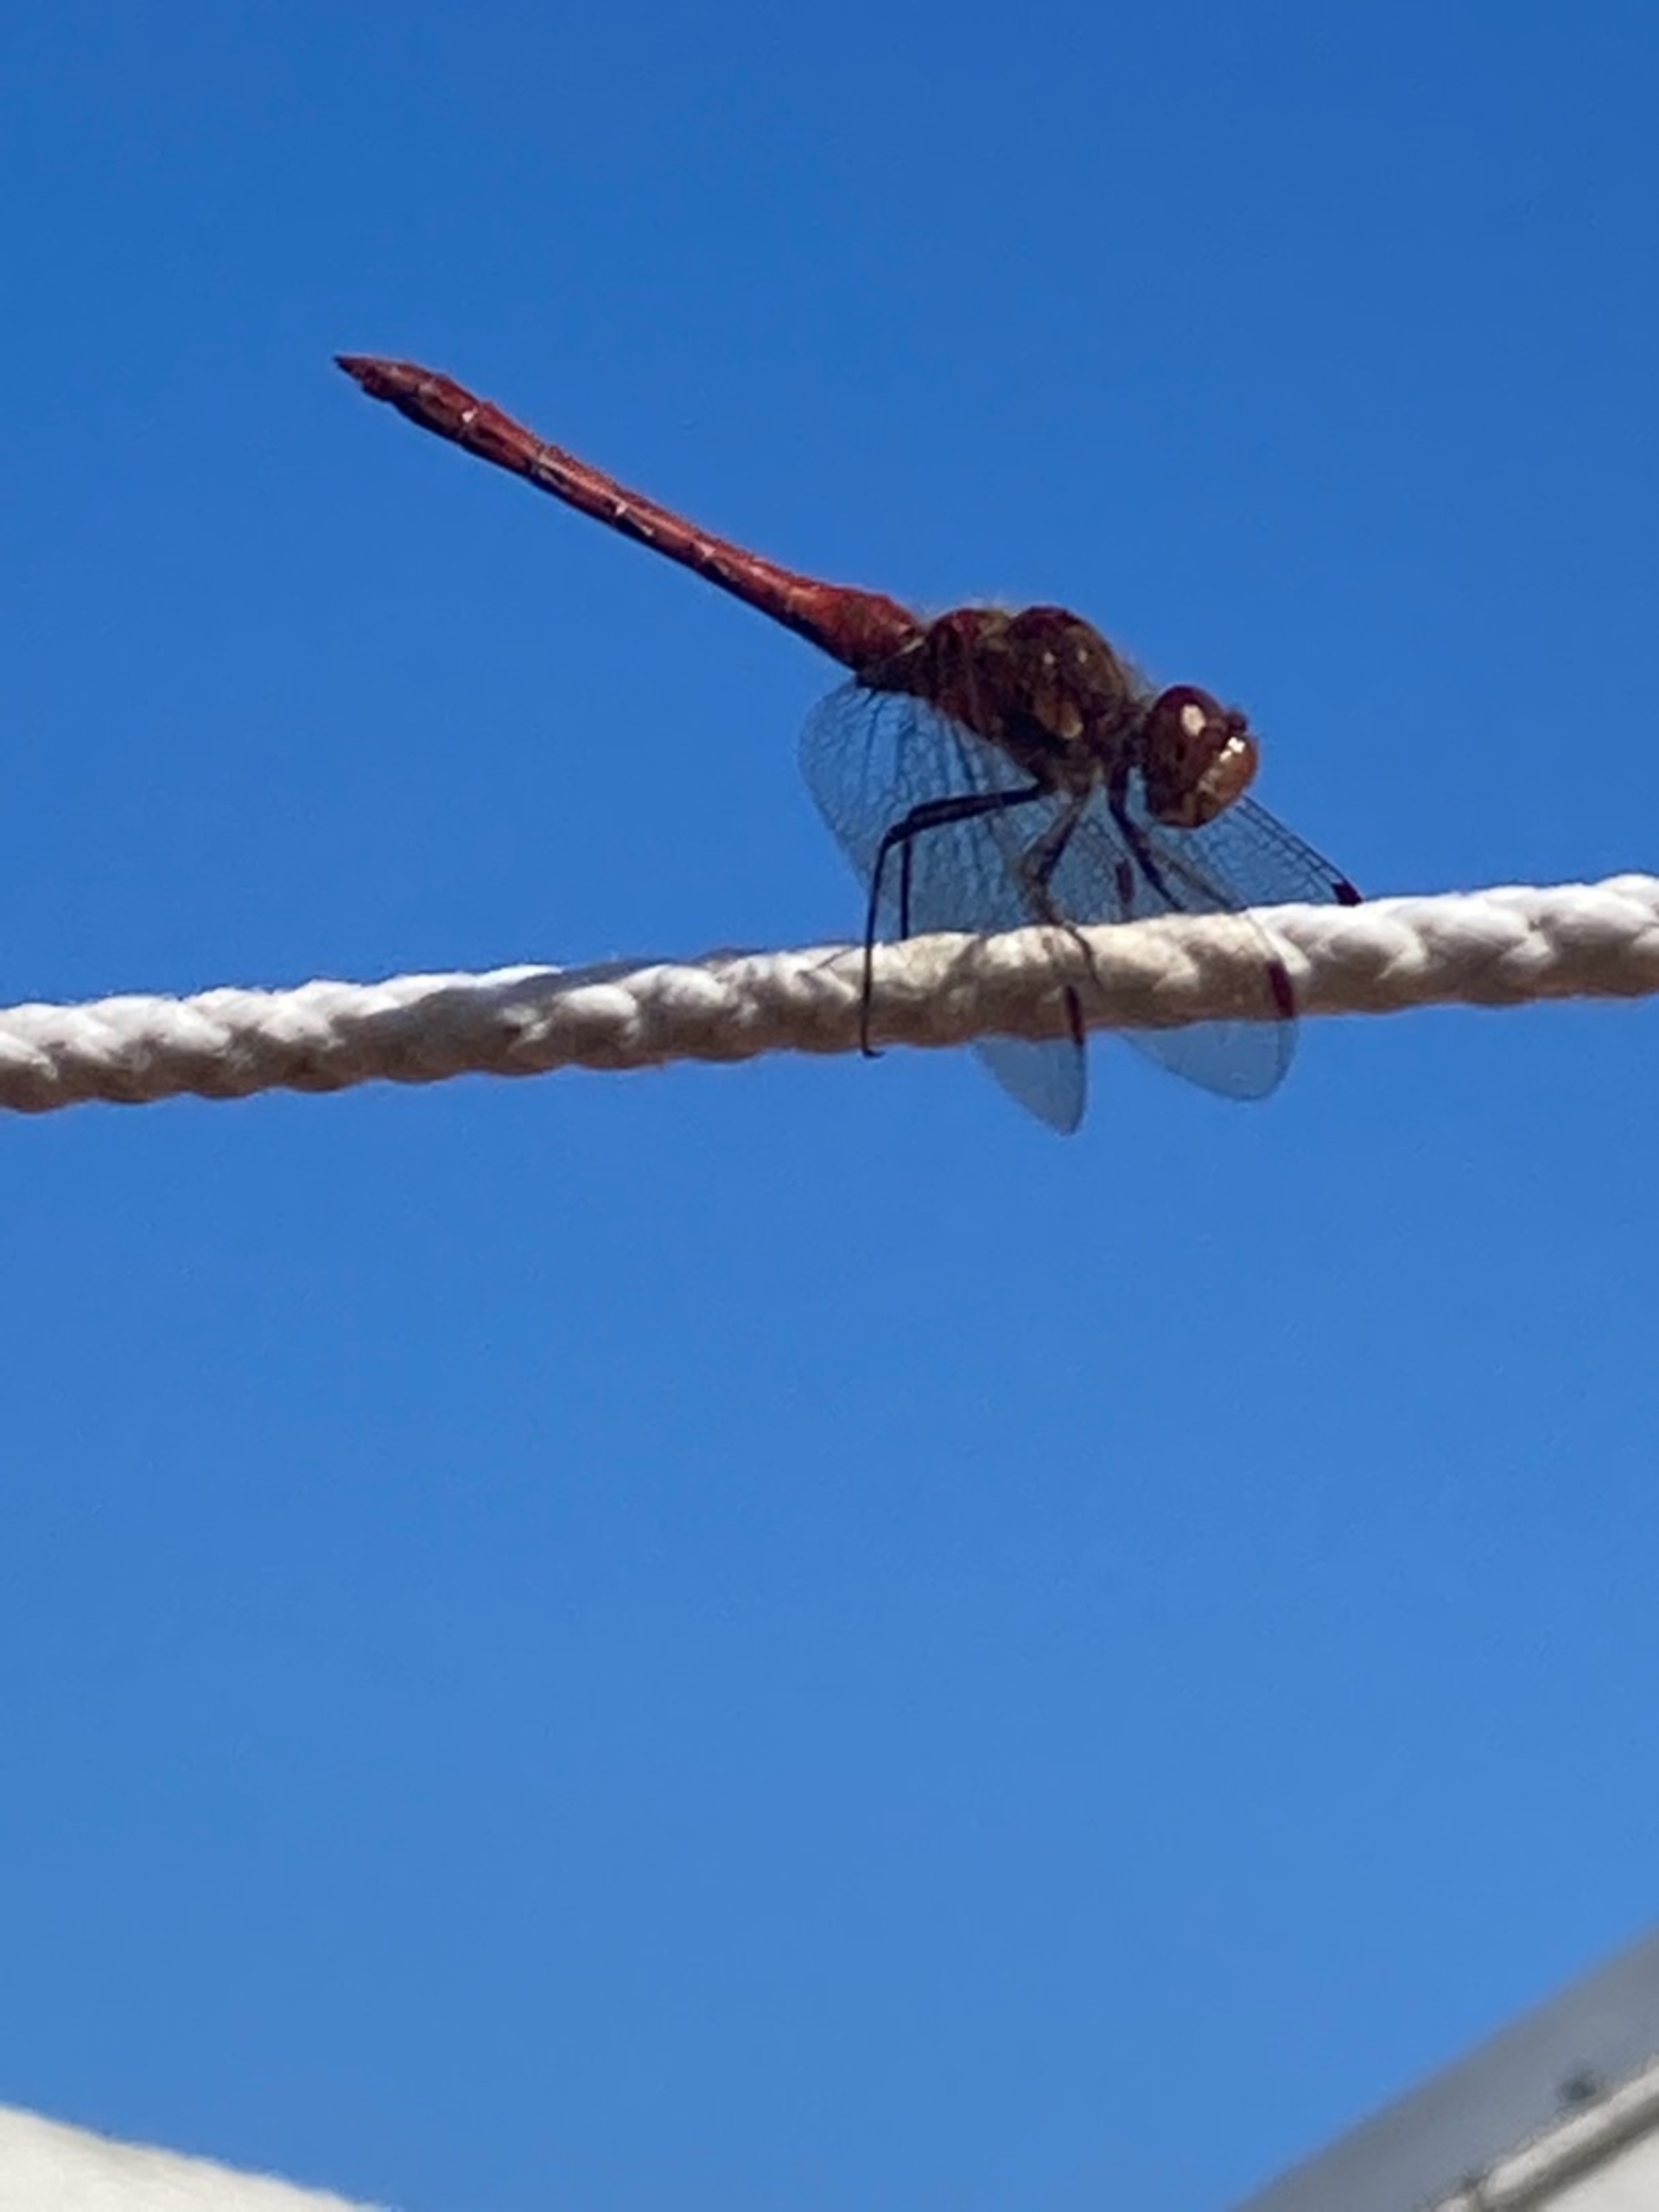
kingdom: Animalia
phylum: Arthropoda
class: Insecta
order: Odonata
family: Libellulidae
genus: Sympetrum
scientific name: Sympetrum
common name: Hedelibeller
